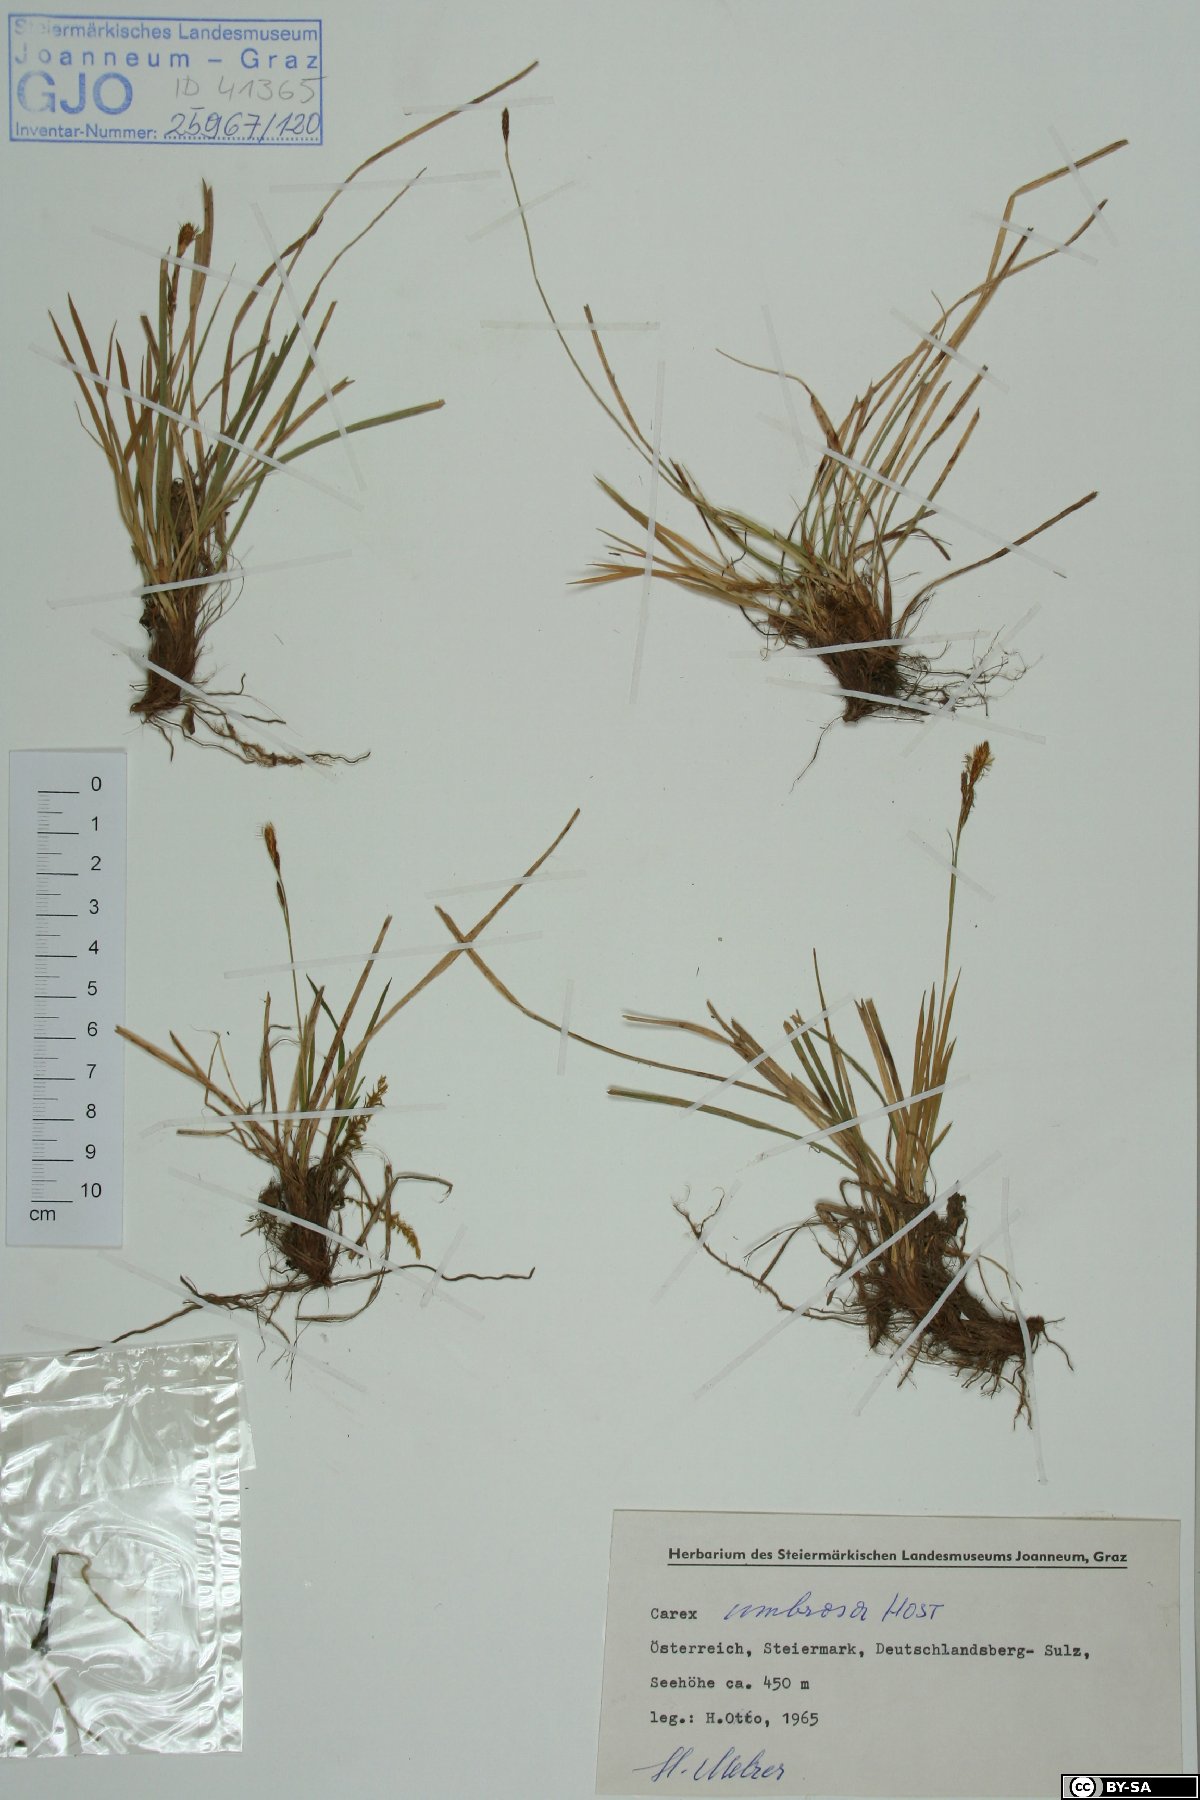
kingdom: Plantae
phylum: Tracheophyta
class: Liliopsida
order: Poales
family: Cyperaceae
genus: Carex
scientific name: Carex umbrosa
